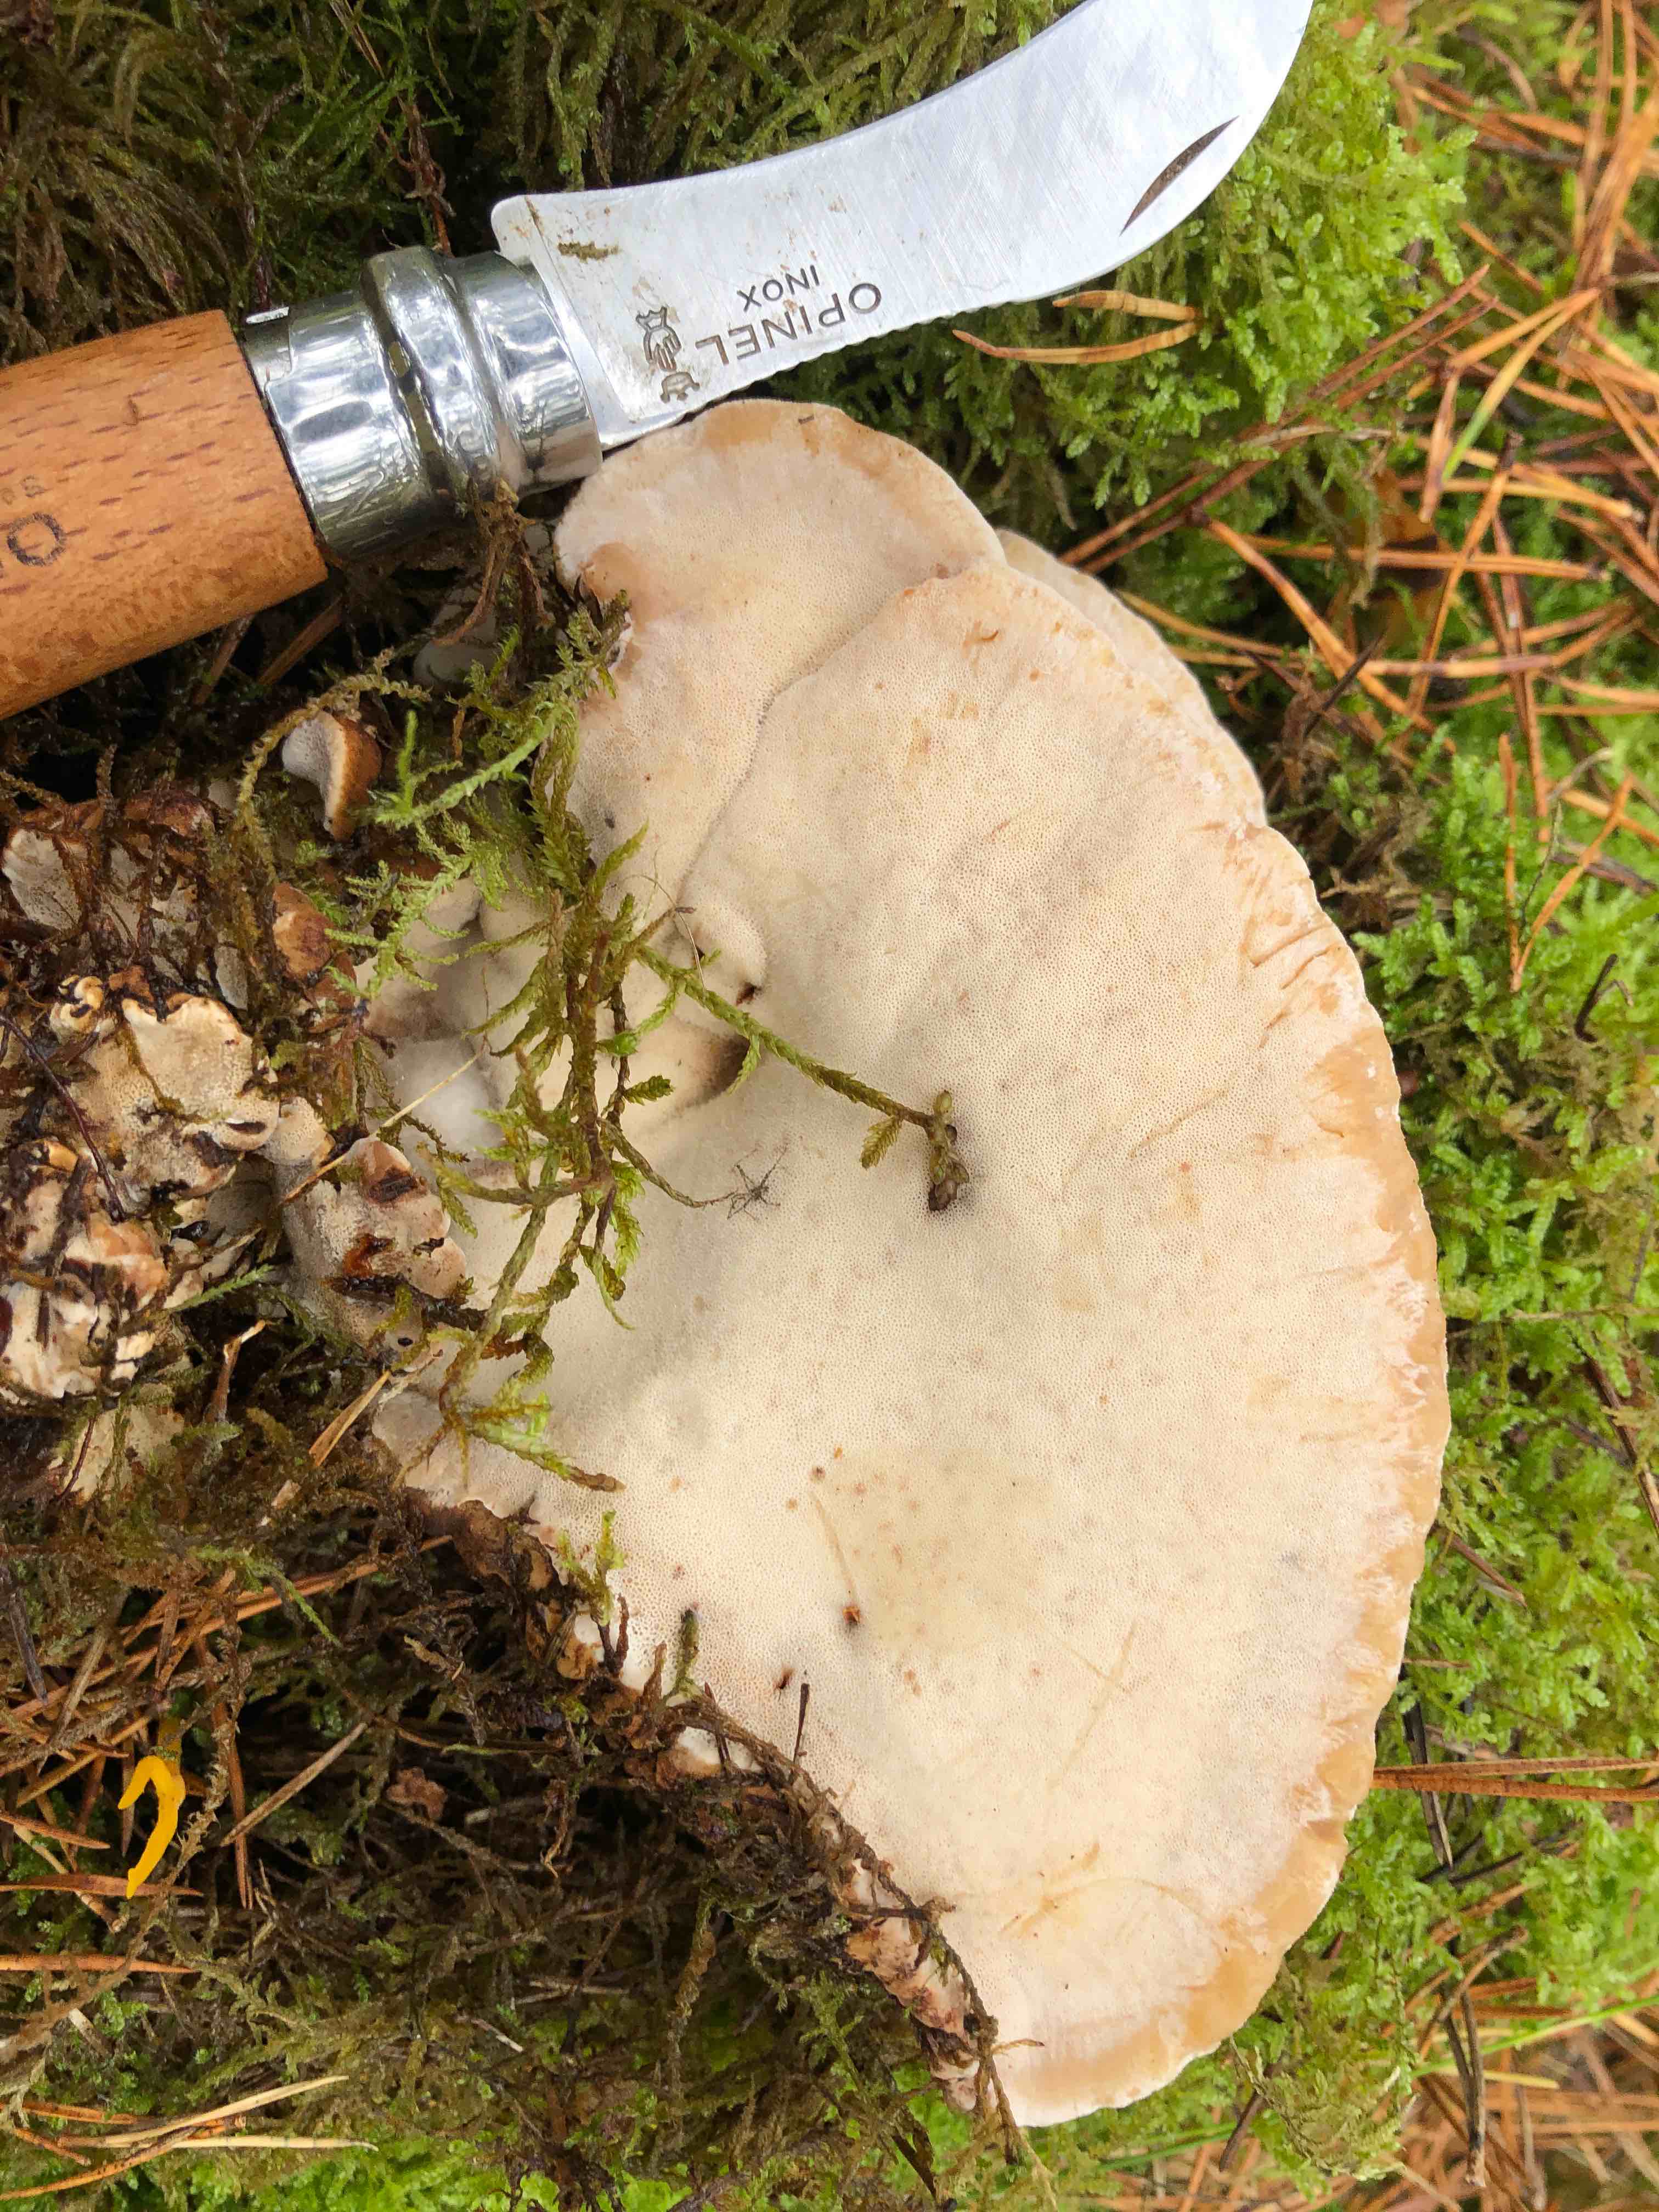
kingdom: Fungi
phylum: Basidiomycota
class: Agaricomycetes
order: Polyporales
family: Ischnodermataceae
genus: Ischnoderma
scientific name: Ischnoderma benzoinum
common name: gran-tjæreporesvamp
